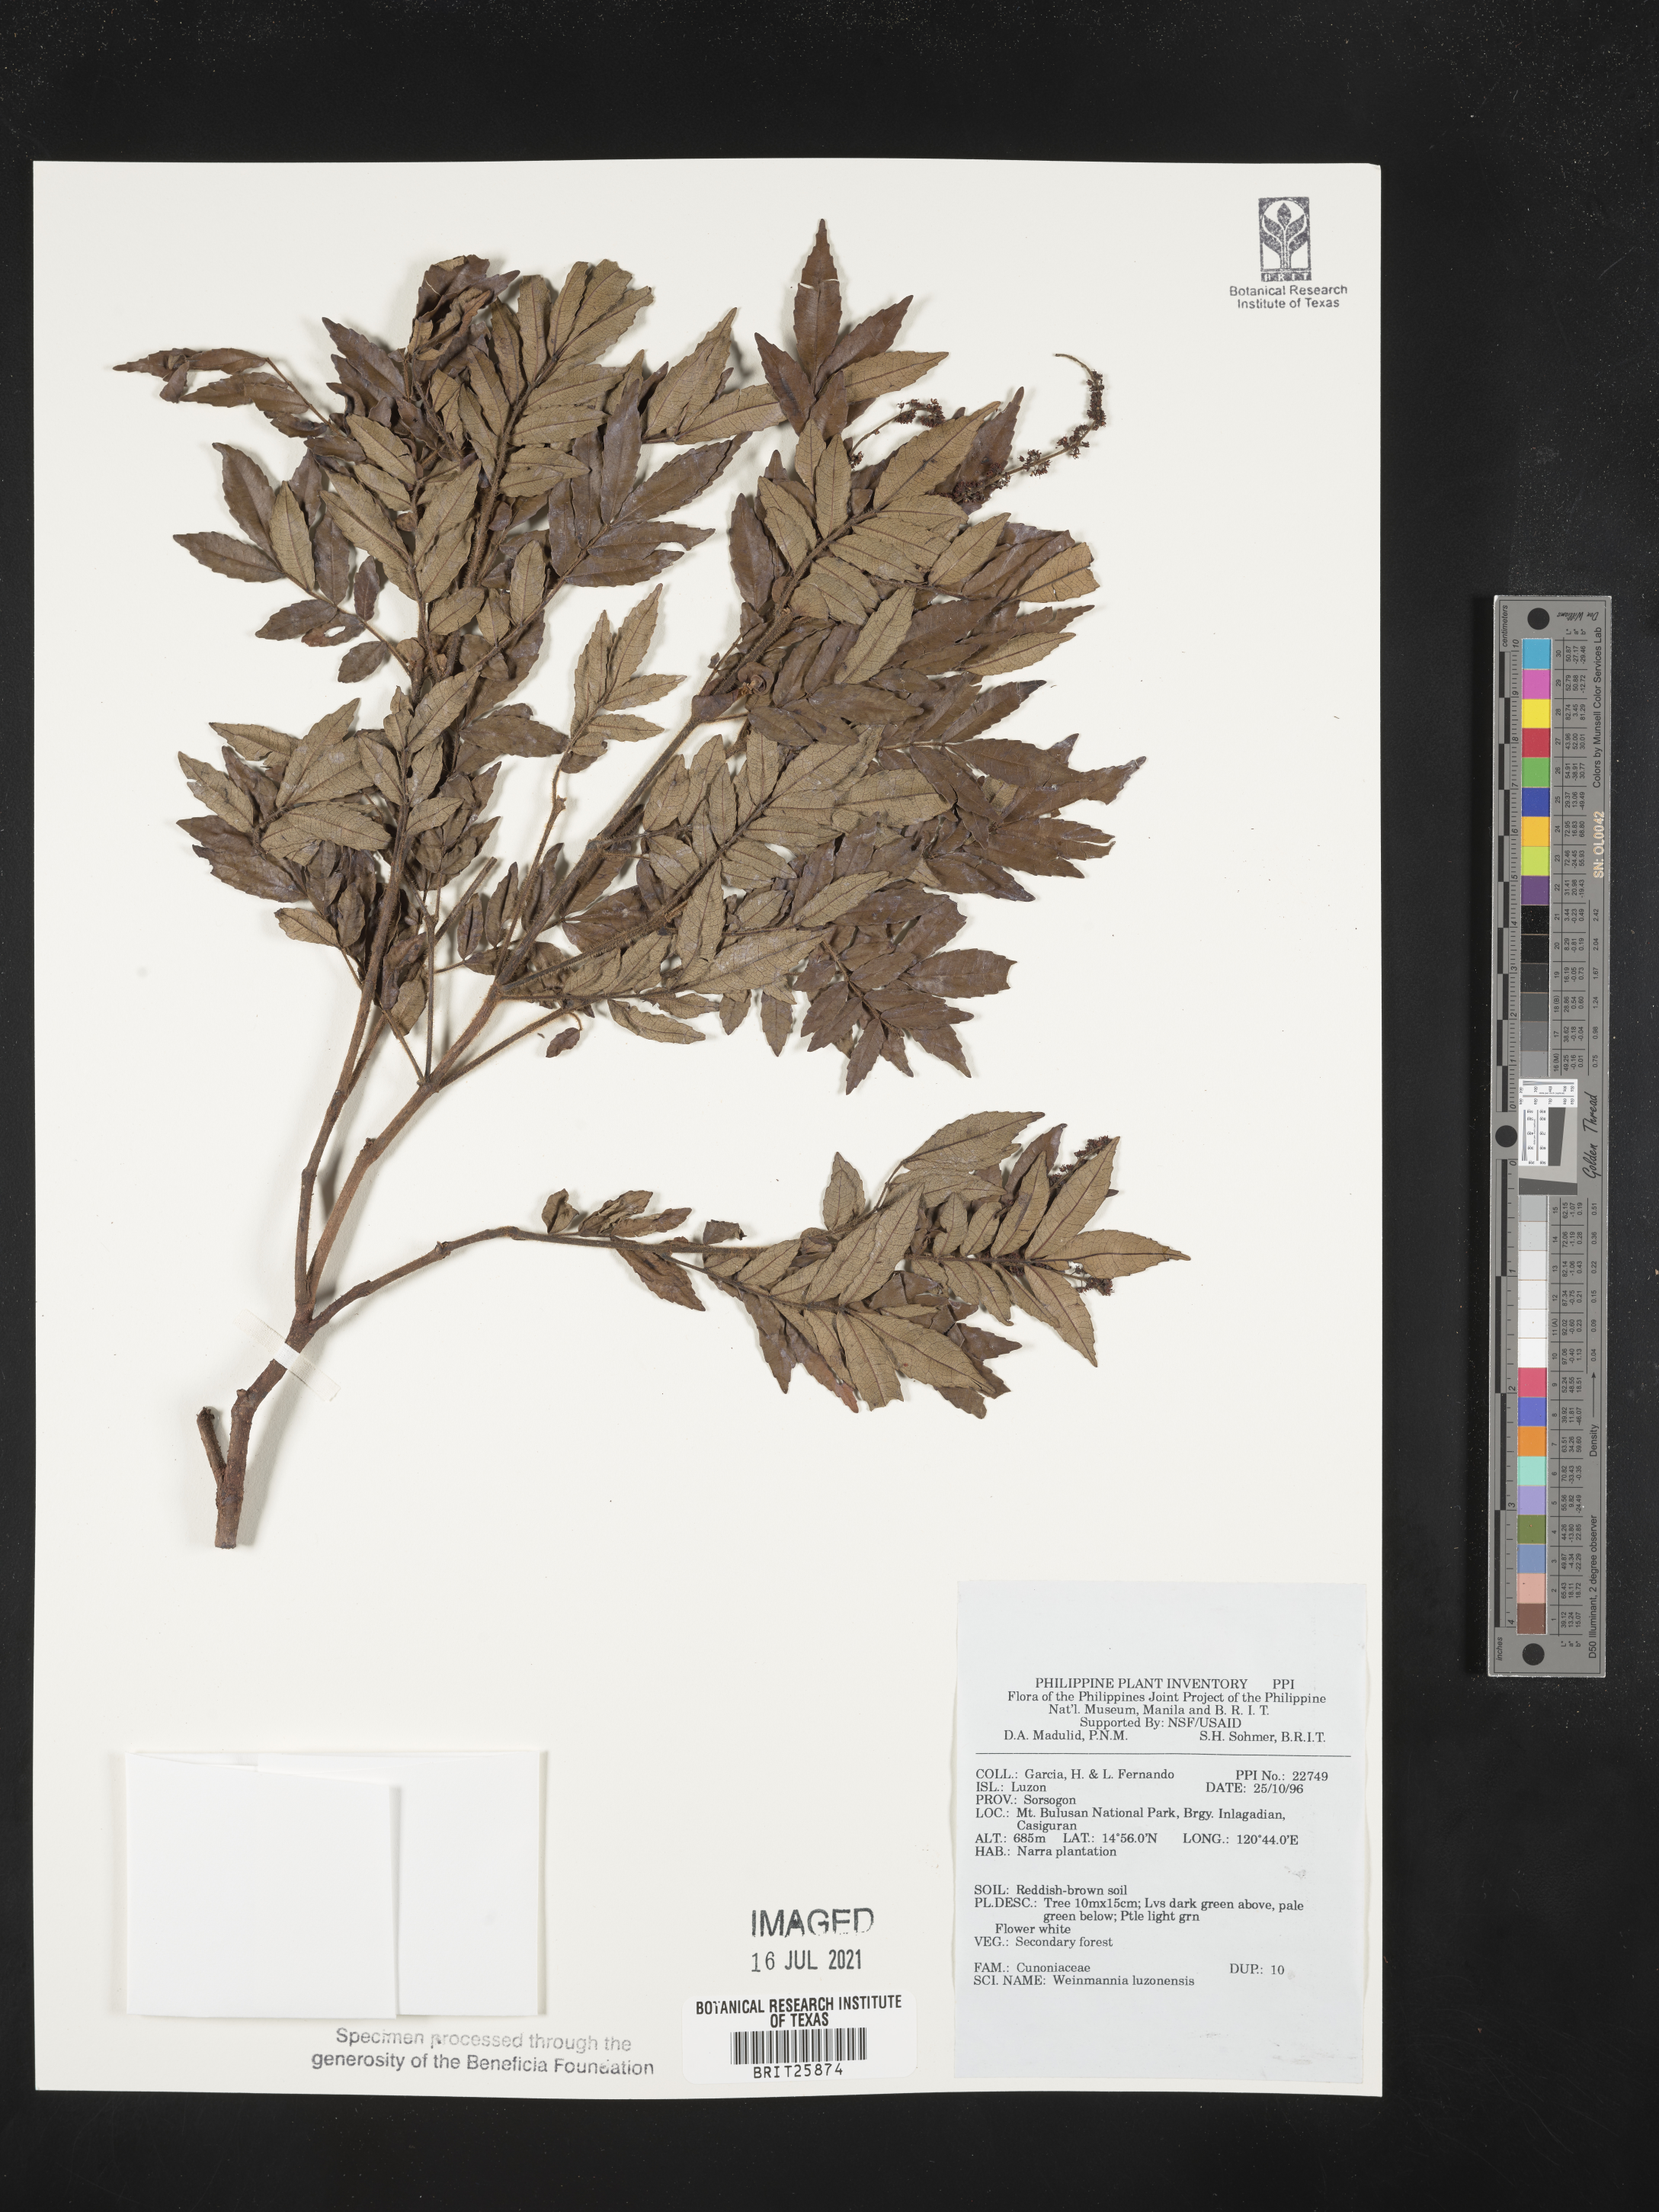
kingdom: Plantae
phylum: Tracheophyta
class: Magnoliopsida
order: Oxalidales
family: Cunoniaceae
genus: Pterophylla
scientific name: Pterophylla luzoniensis
